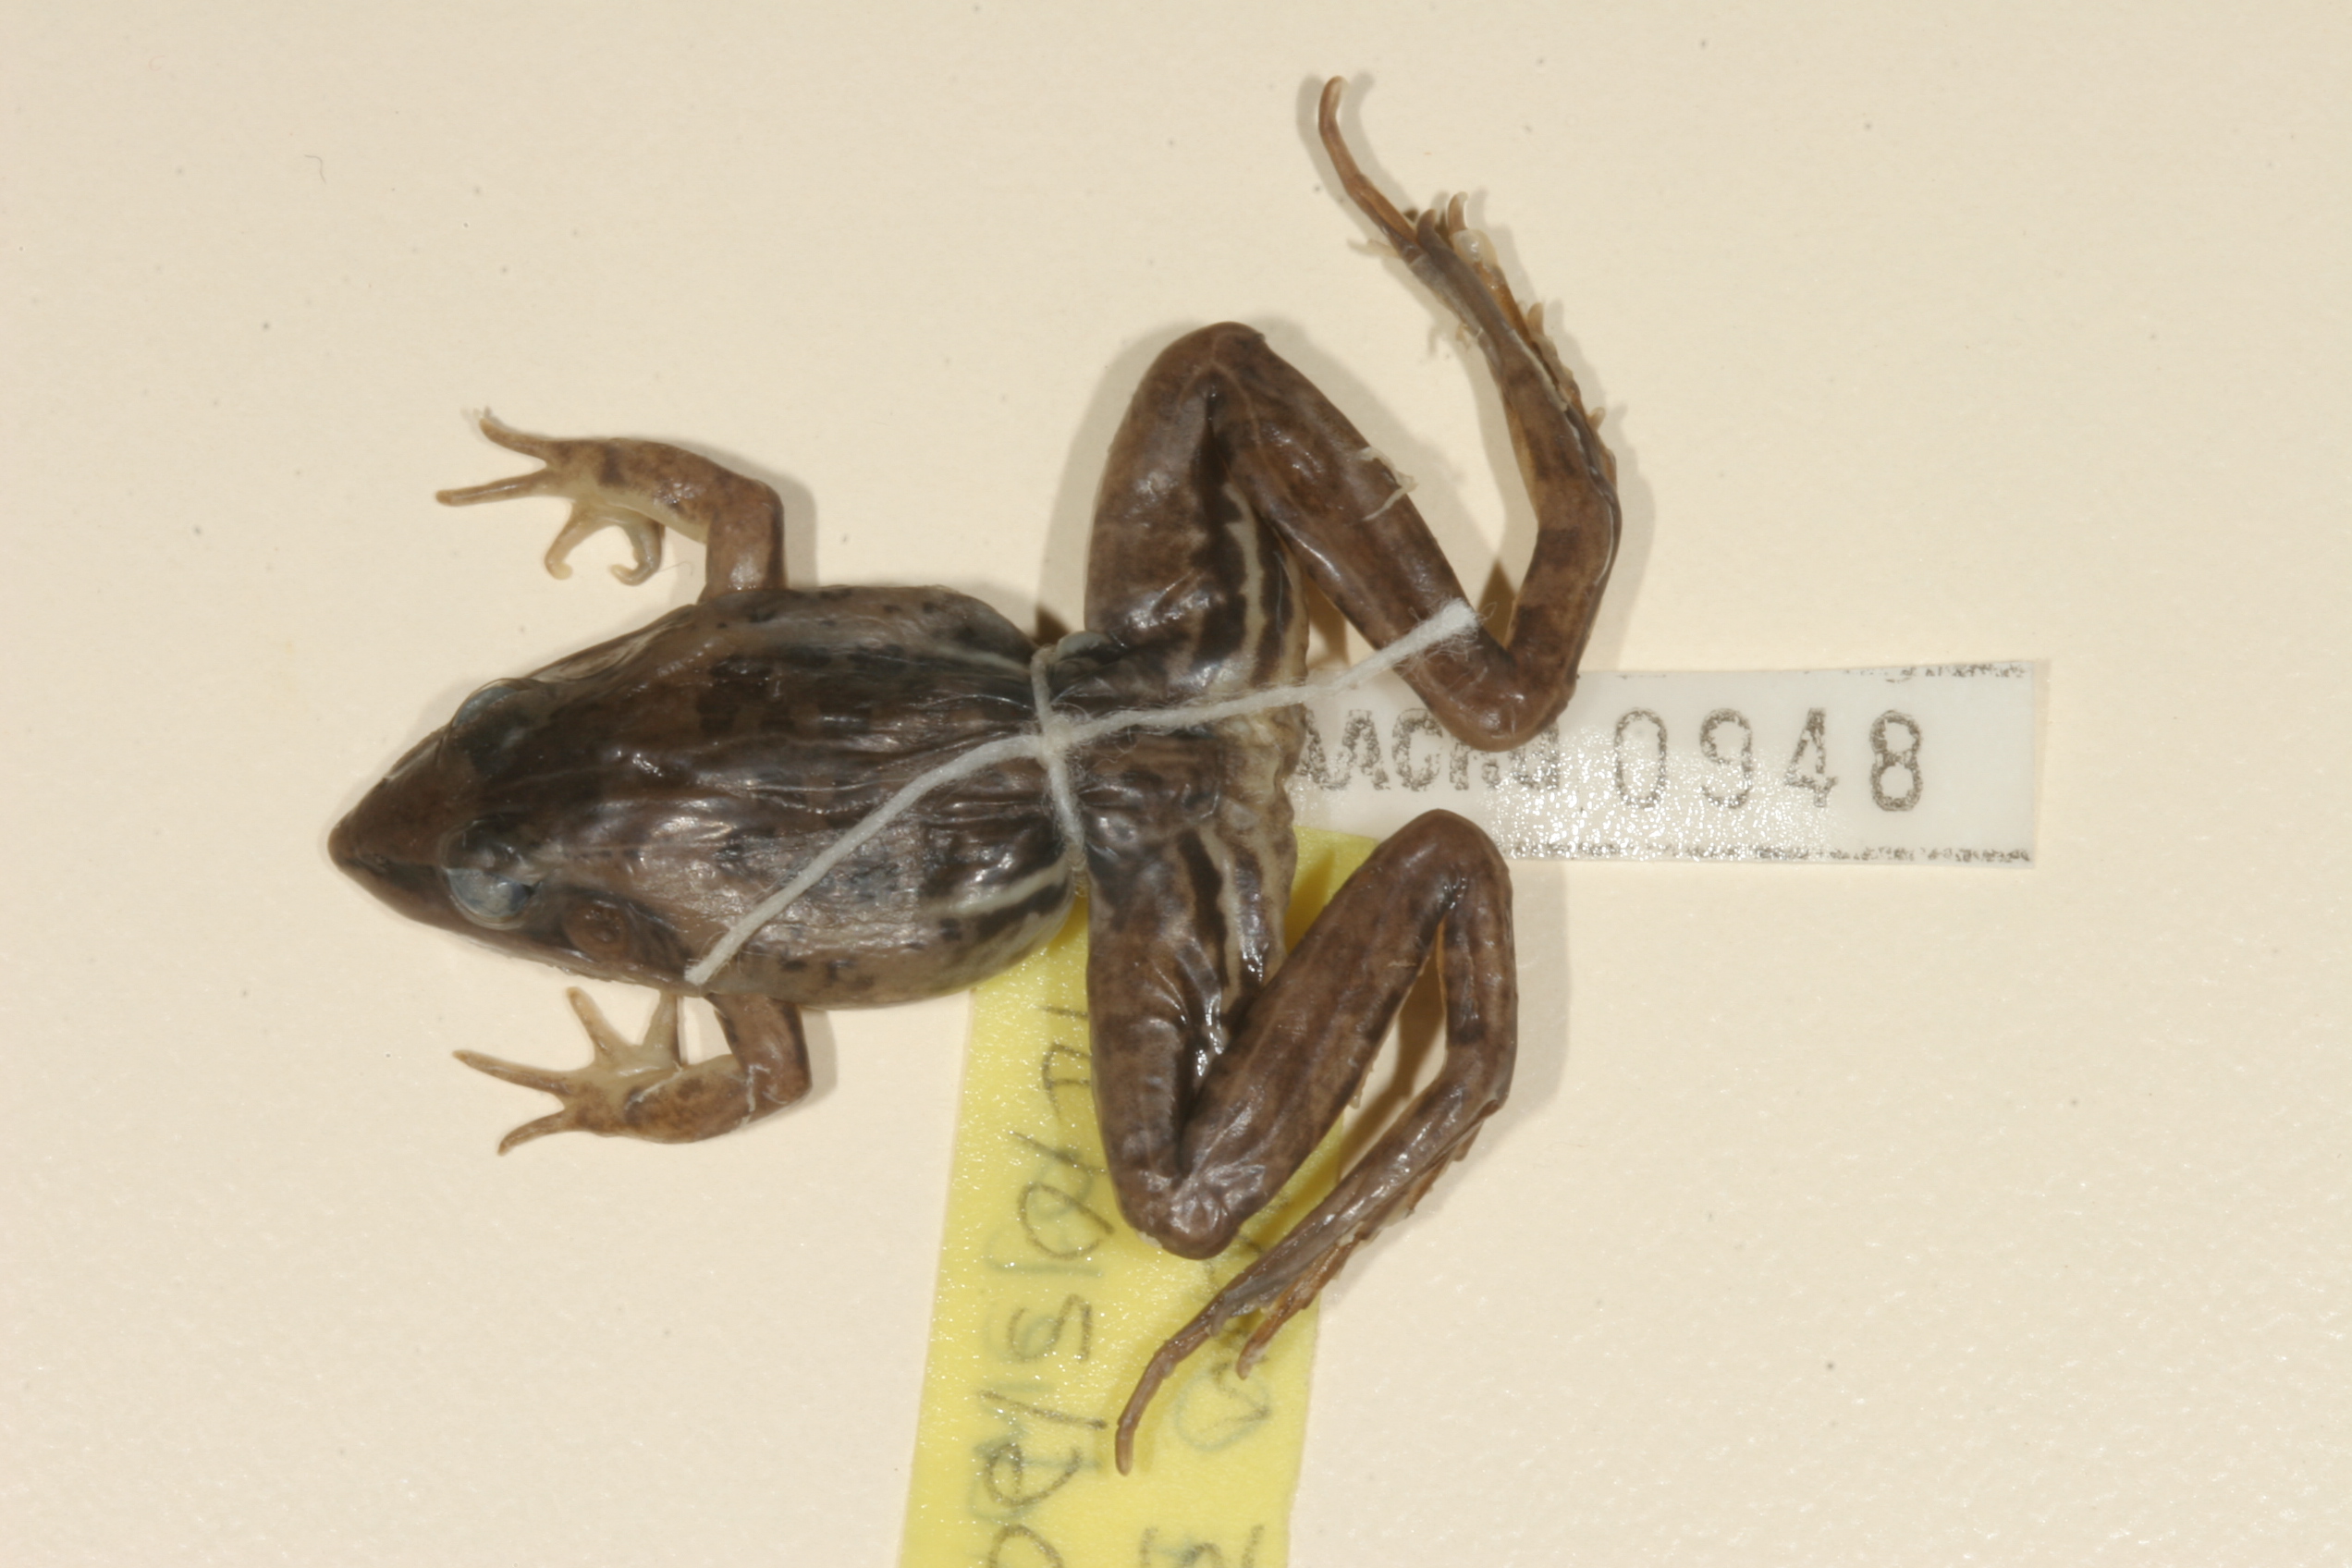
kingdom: Animalia
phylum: Chordata
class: Amphibia
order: Anura
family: Ptychadenidae
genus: Ptychadena
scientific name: Ptychadena anchietae
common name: Anchieta's ridged frog
